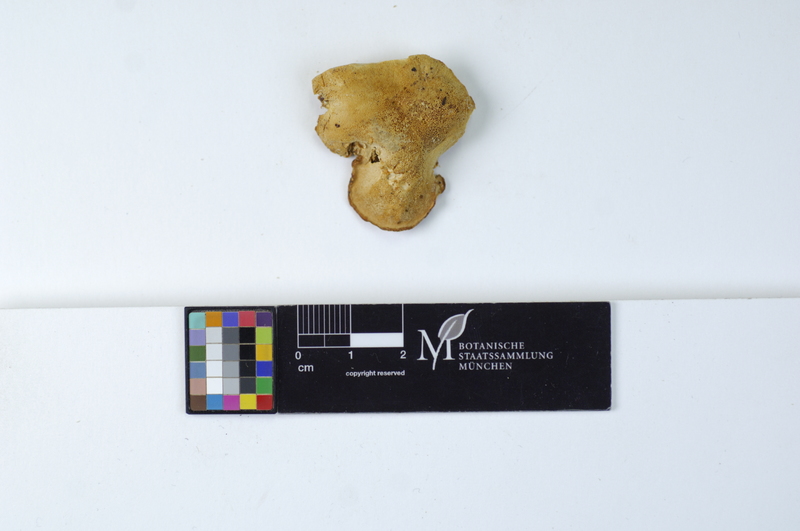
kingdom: Fungi
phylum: Basidiomycota
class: Agaricomycetes
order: Polyporales
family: Incrustoporiaceae
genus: Tyromyces
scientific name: Tyromyces kmetii
